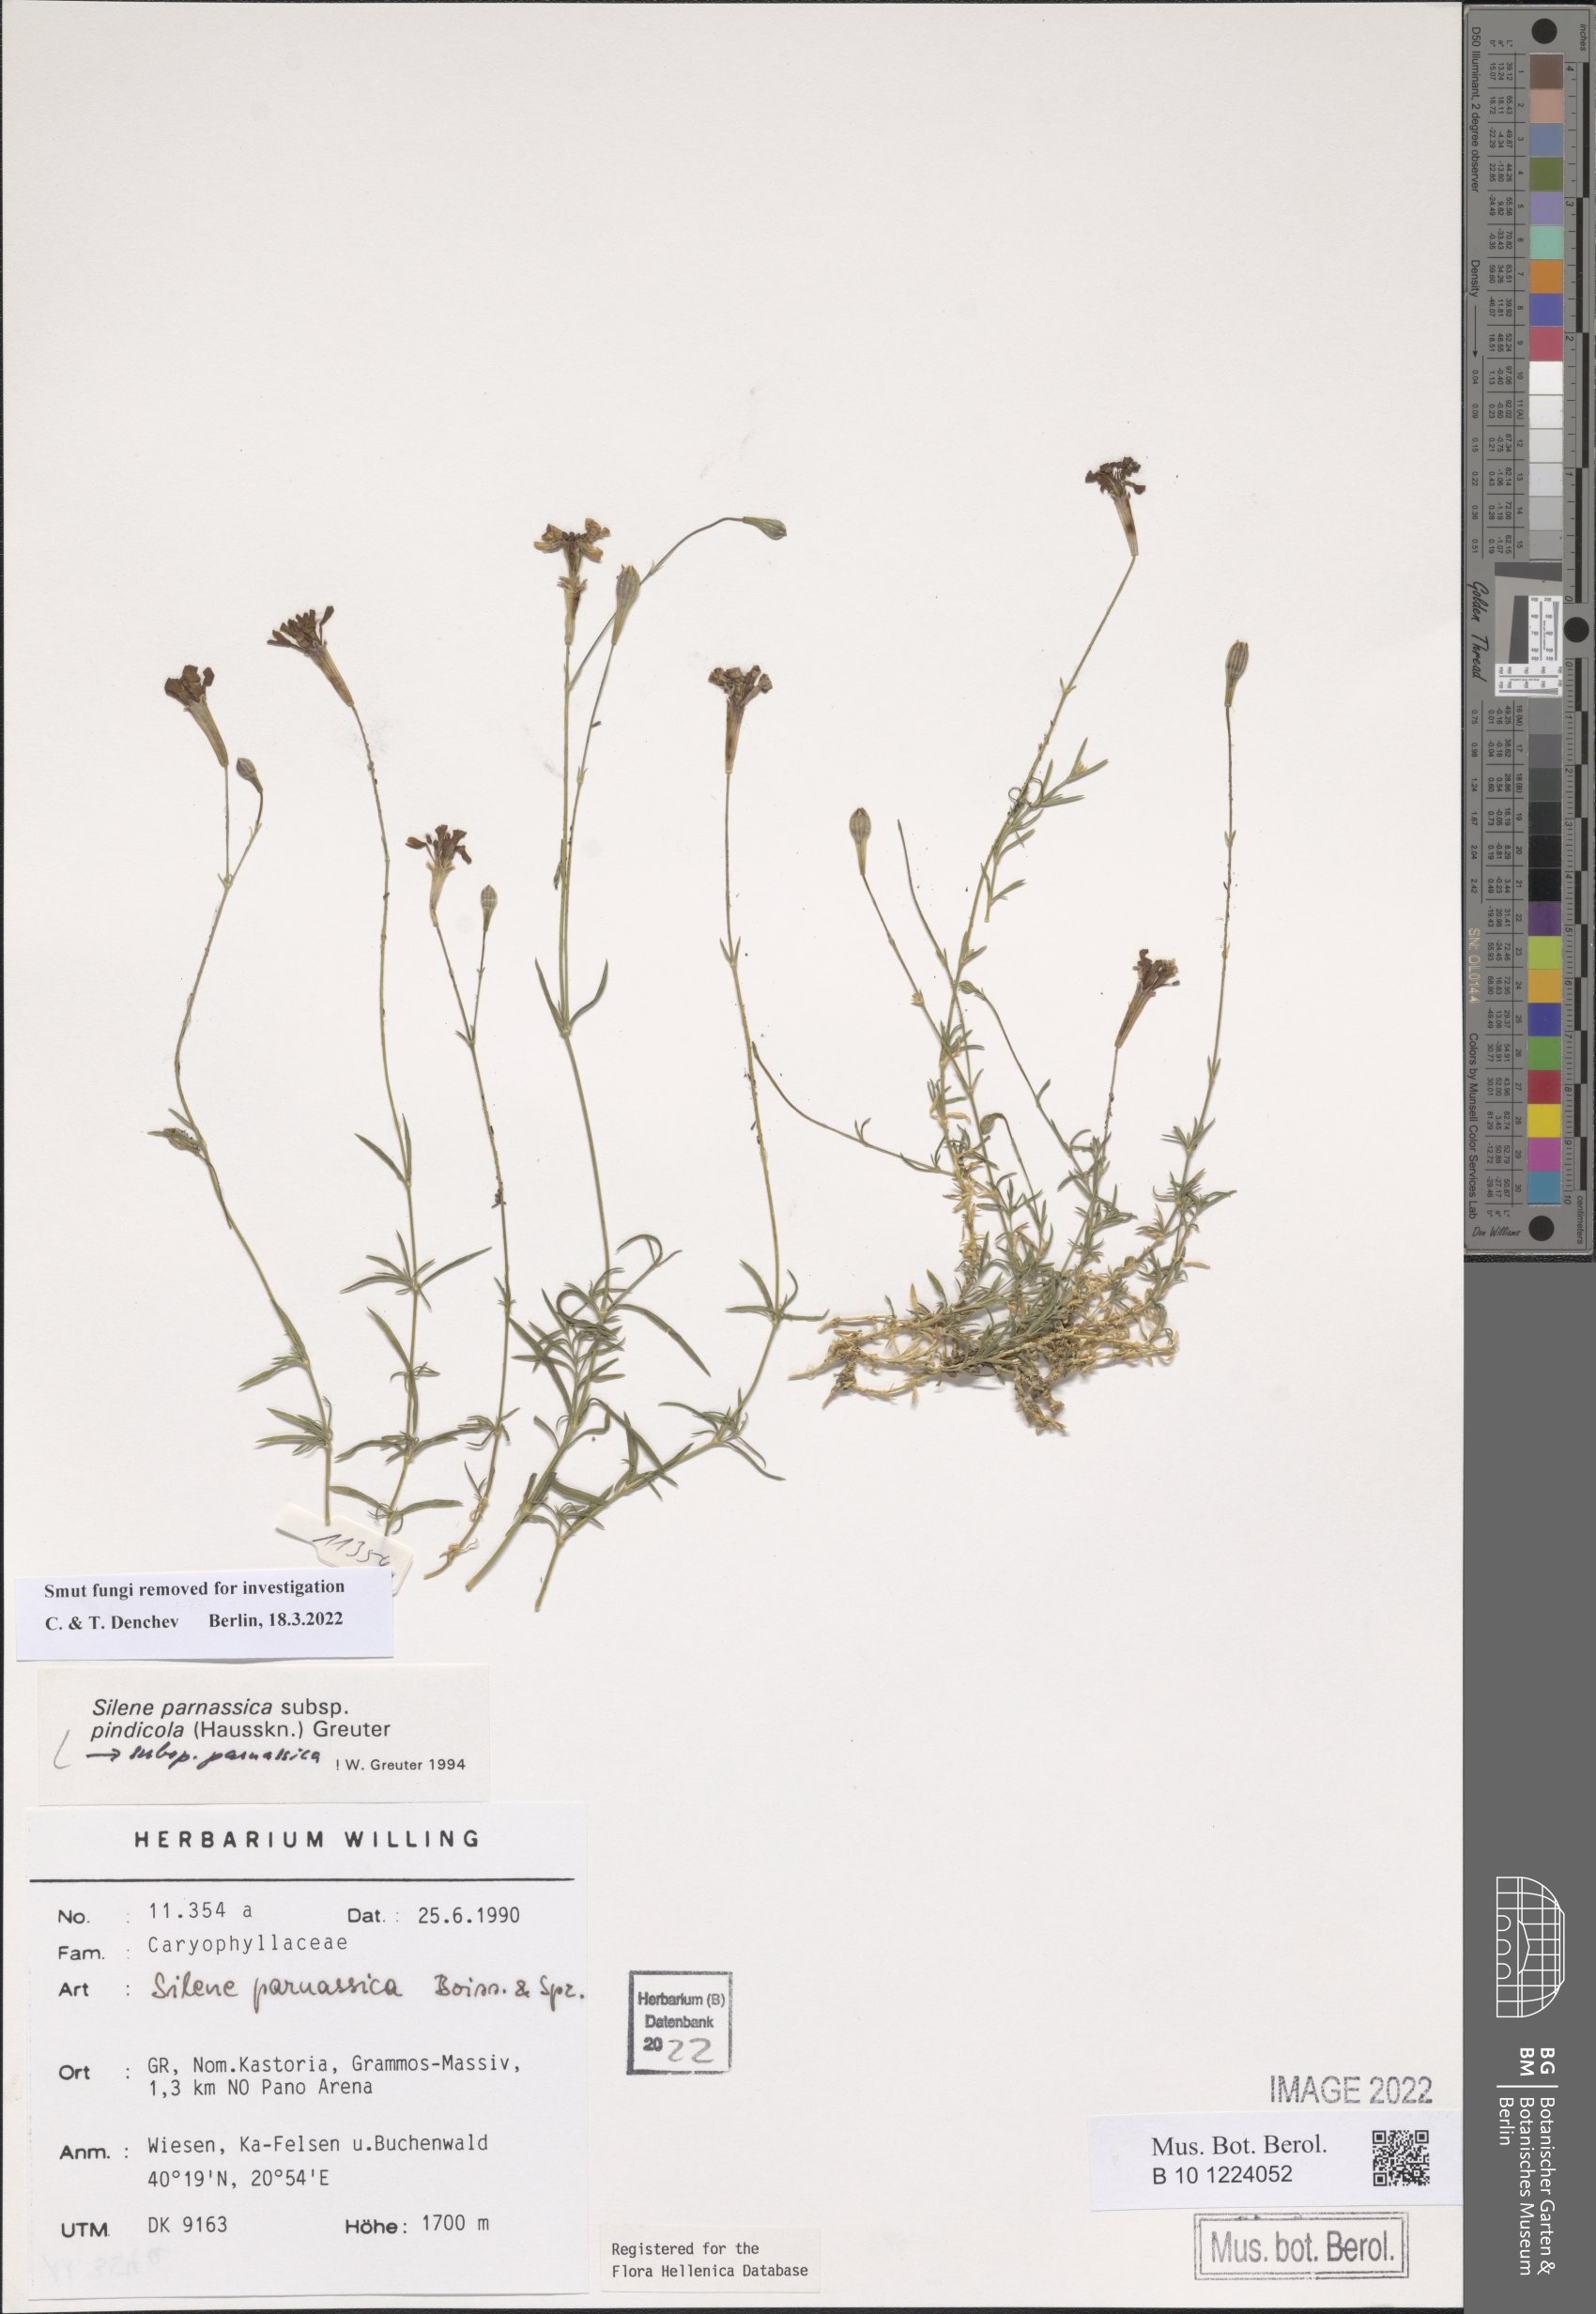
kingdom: Plantae
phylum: Tracheophyta
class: Magnoliopsida
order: Caryophyllales
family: Caryophyllaceae
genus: Silene
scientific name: Silene parnassica
